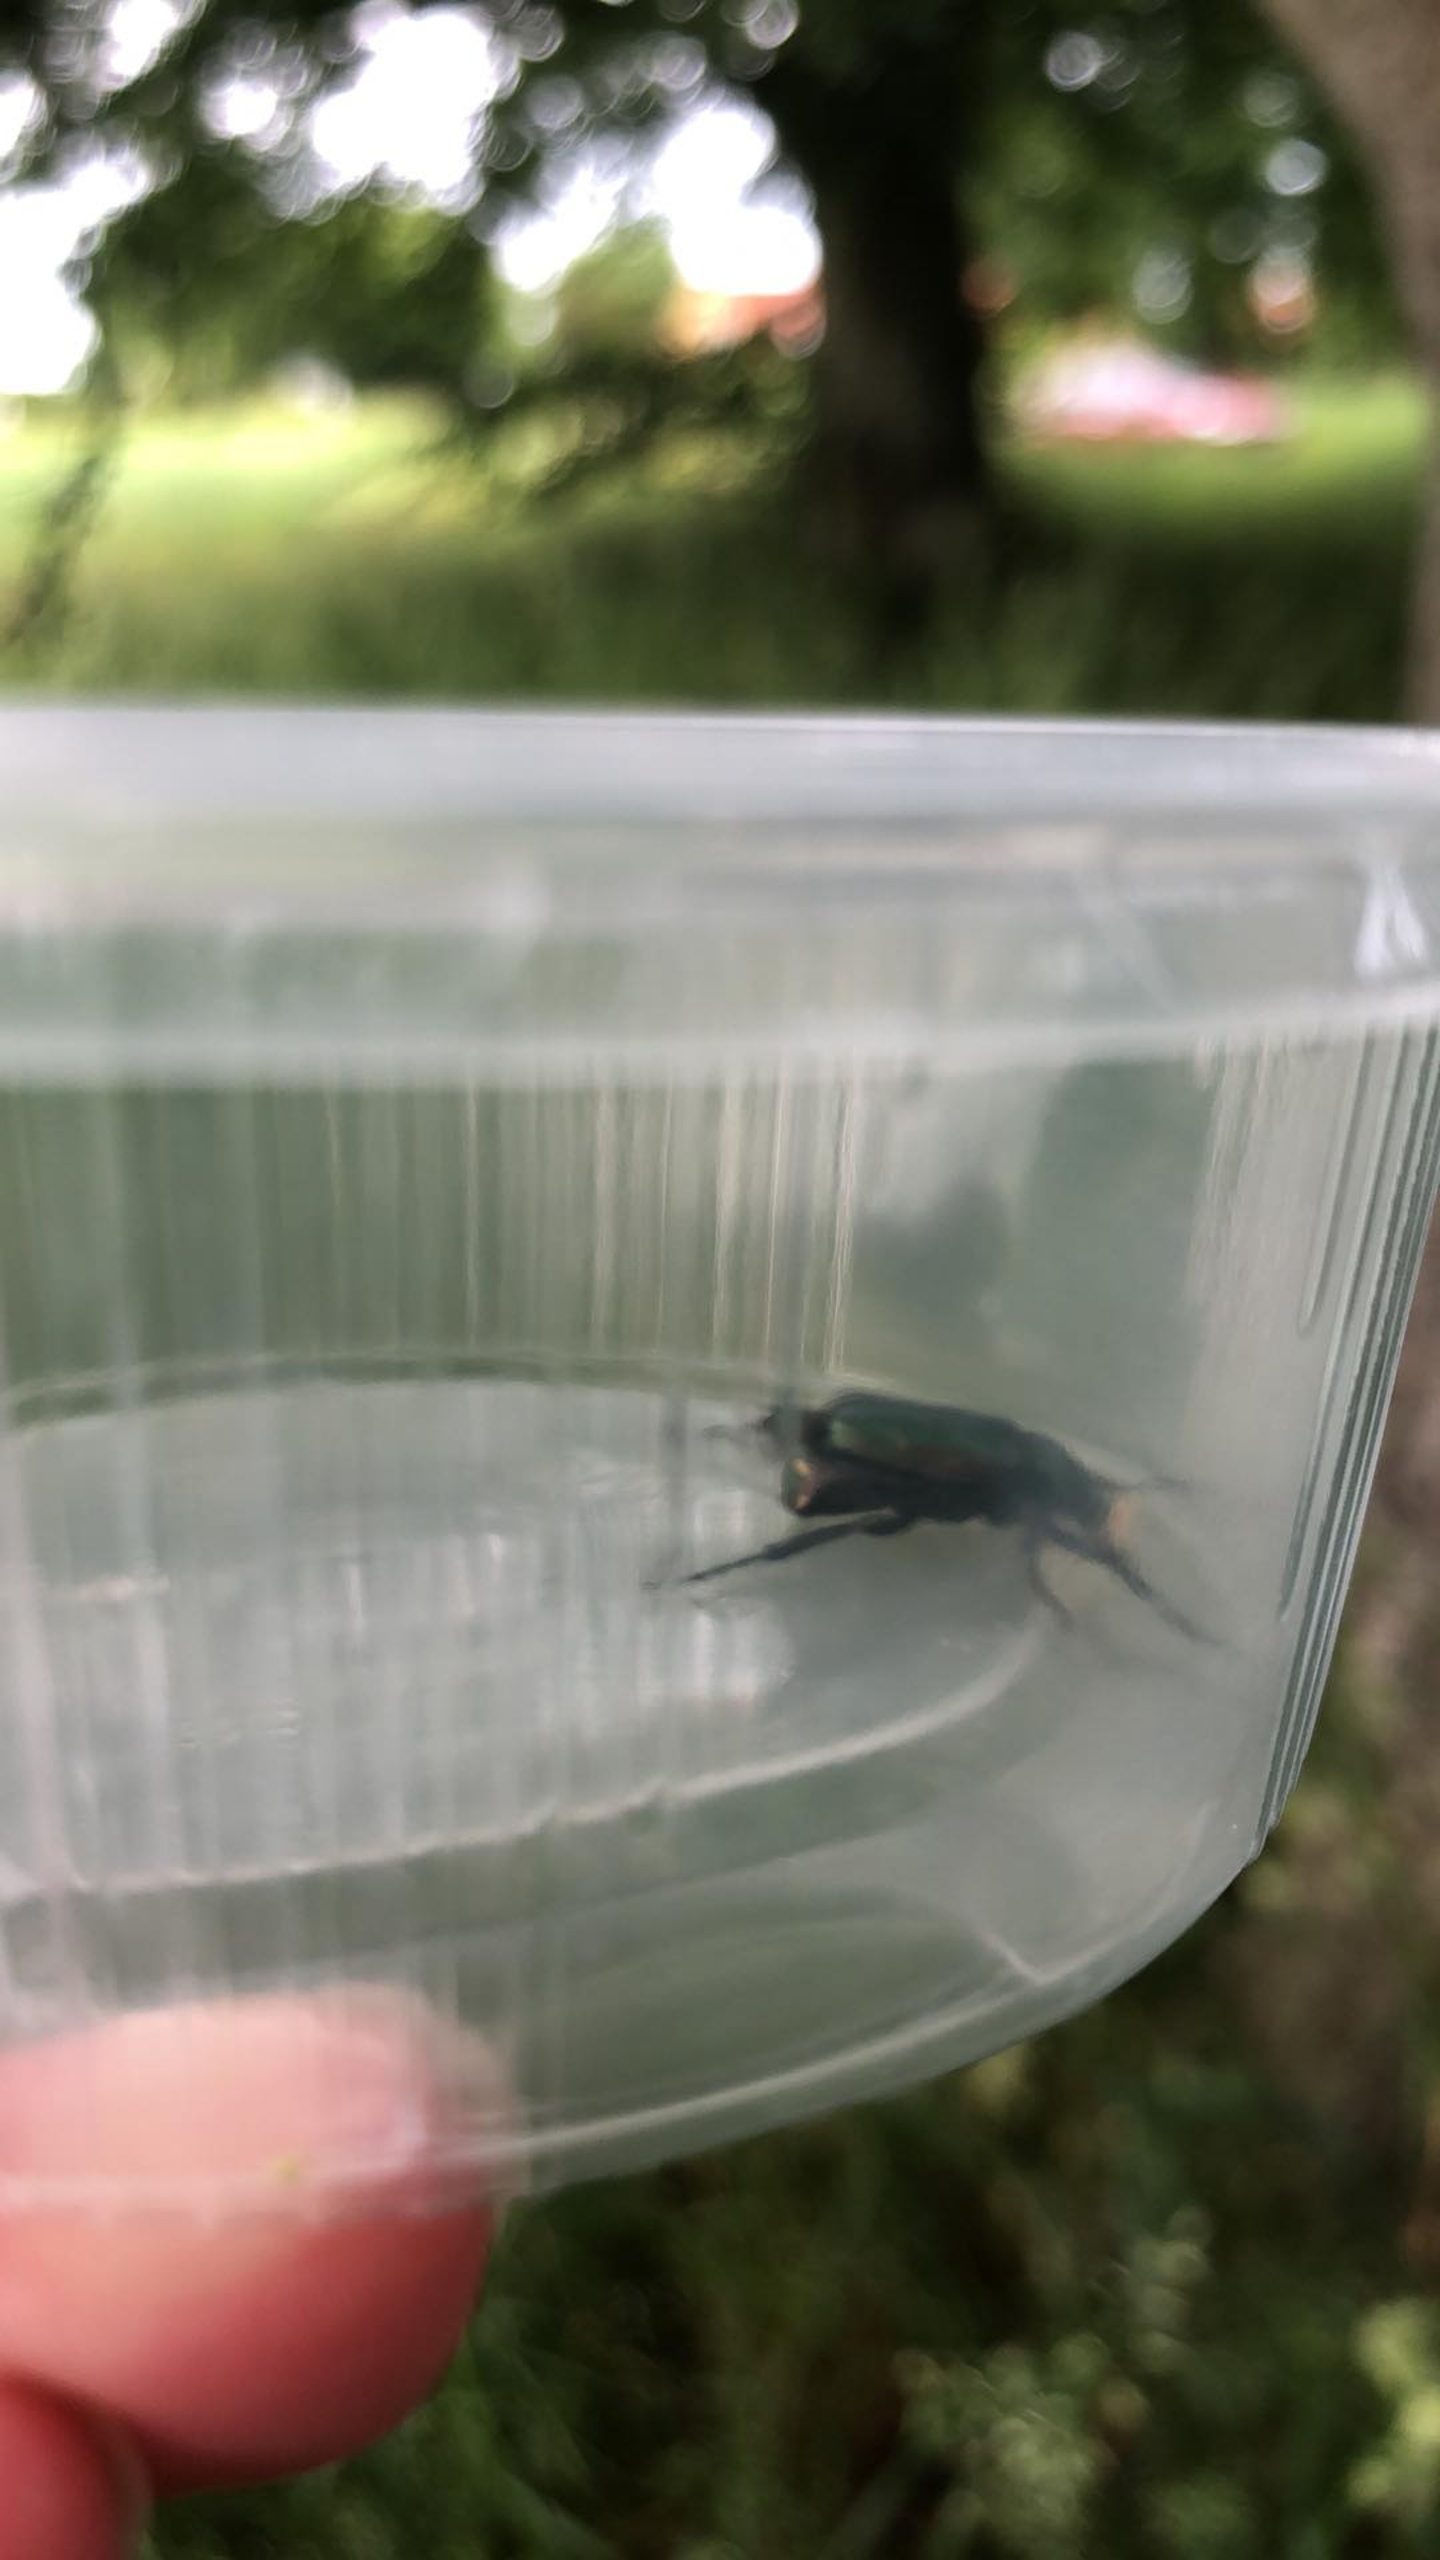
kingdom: Animalia
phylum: Arthropoda
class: Insecta
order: Coleoptera
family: Scarabaeidae
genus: Gnorimus
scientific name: Gnorimus nobilis
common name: Grøn pragttorbist
